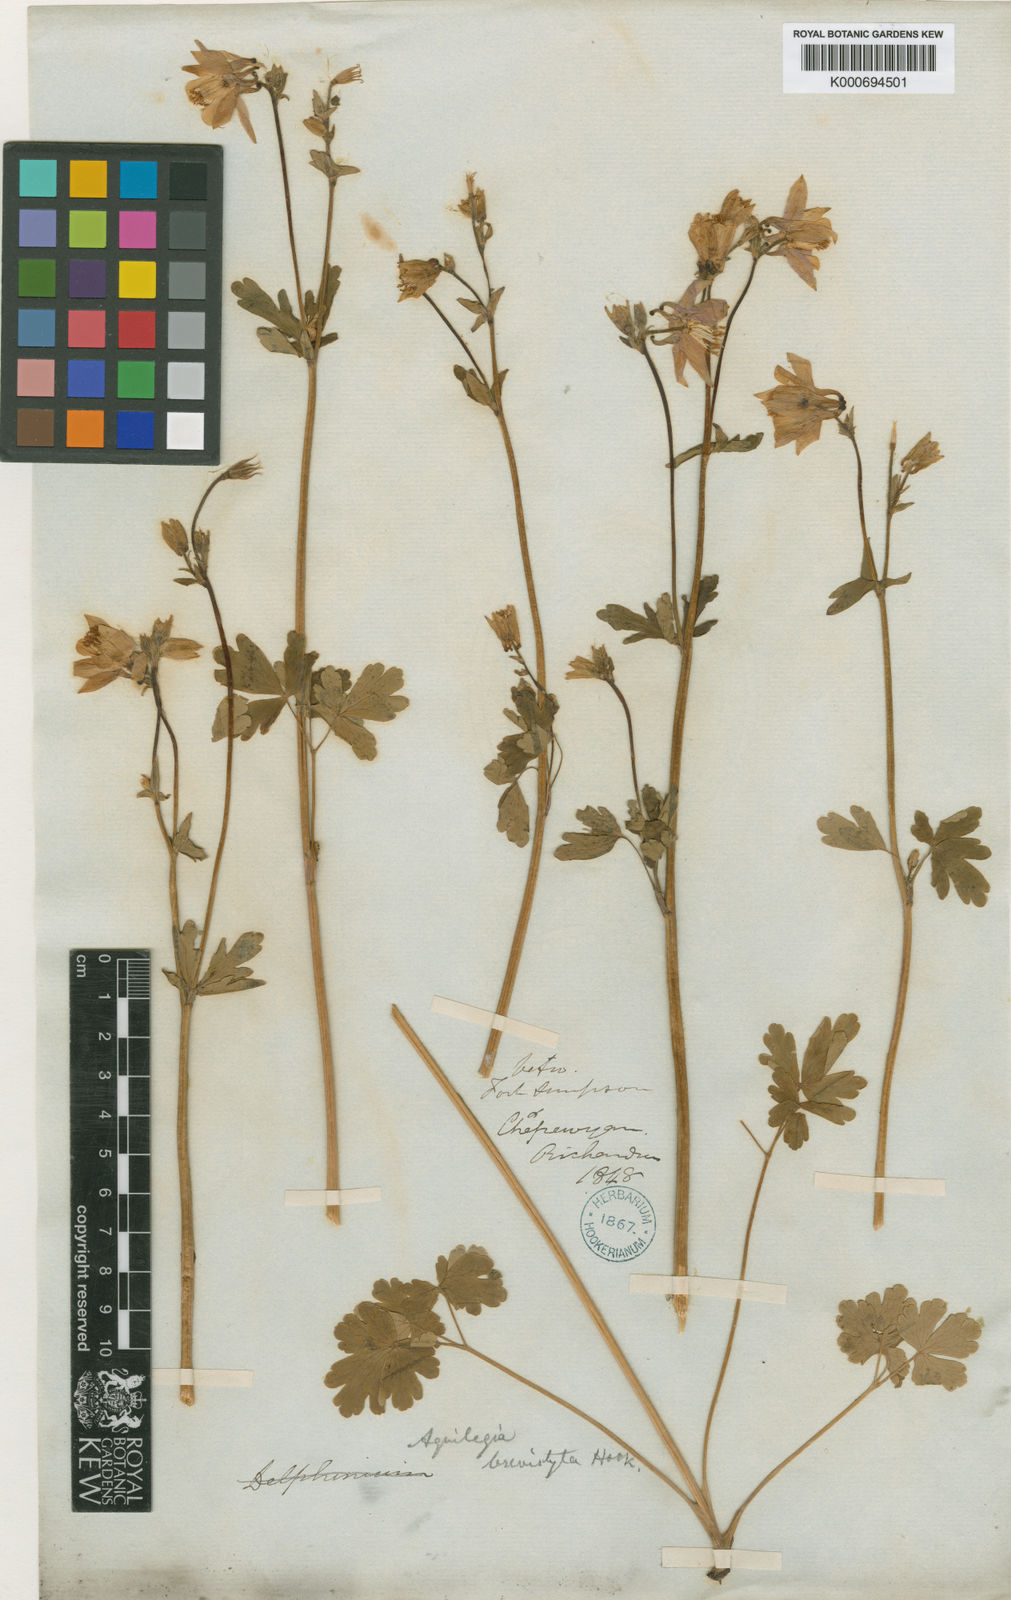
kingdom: Plantae
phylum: Tracheophyta
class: Magnoliopsida
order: Ranunculales
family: Ranunculaceae
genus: Aquilegia
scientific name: Aquilegia brevistyla
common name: Yukon columbine
